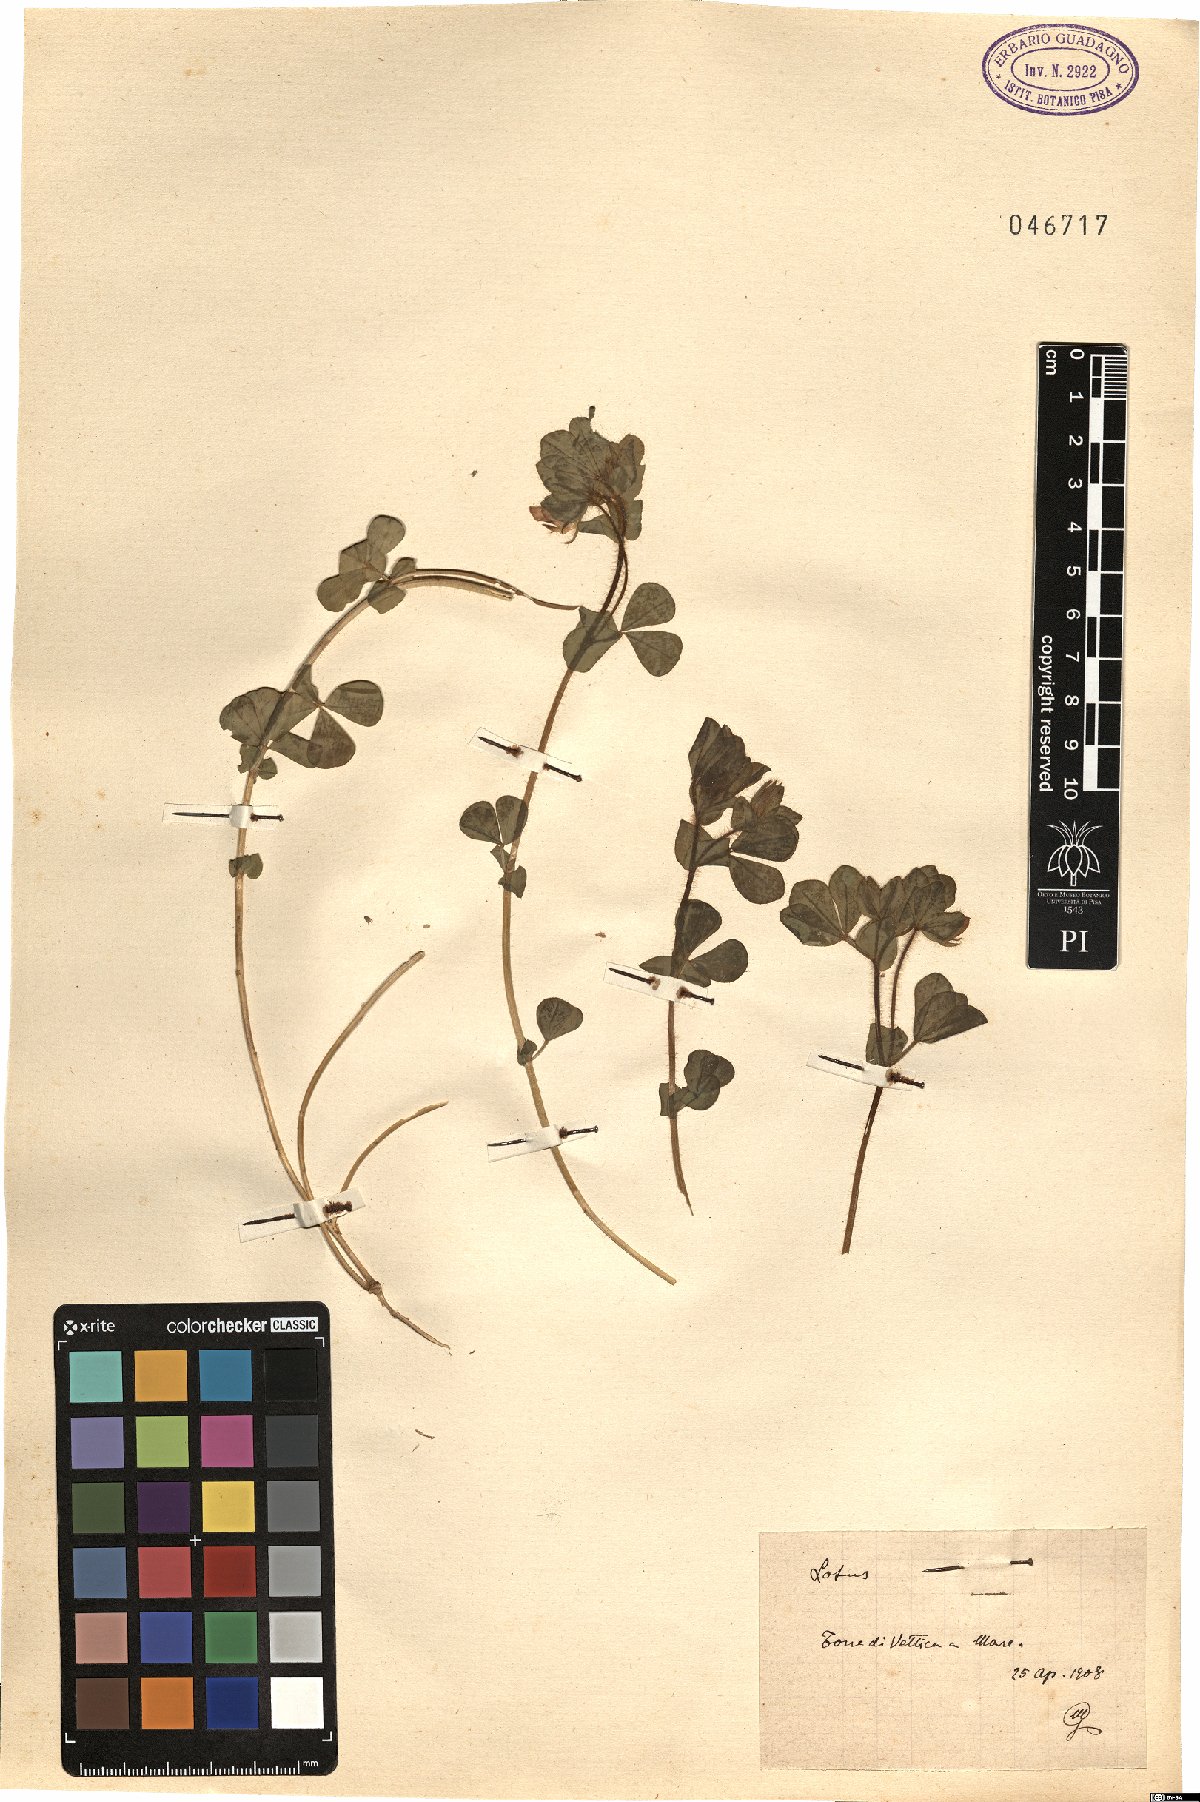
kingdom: Plantae
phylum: Tracheophyta
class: Magnoliopsida
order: Fabales
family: Fabaceae
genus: Lotus
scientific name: Lotus
